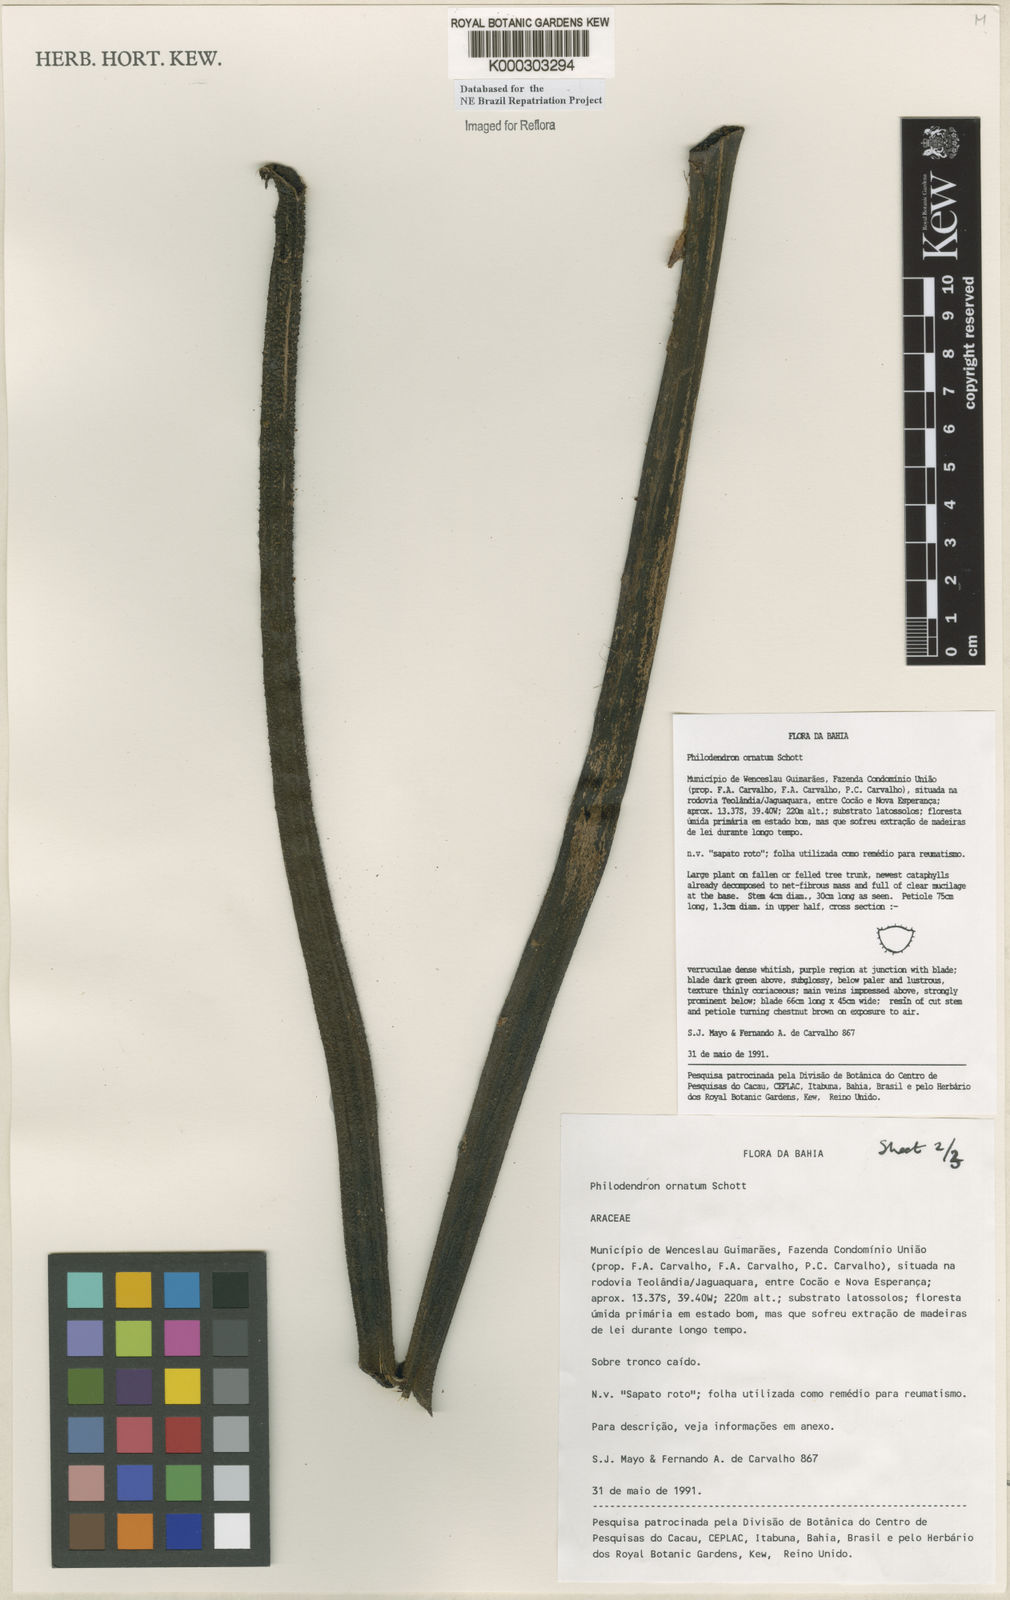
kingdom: Plantae
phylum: Tracheophyta
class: Liliopsida
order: Alismatales
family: Araceae
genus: Philodendron
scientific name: Philodendron ornatum
